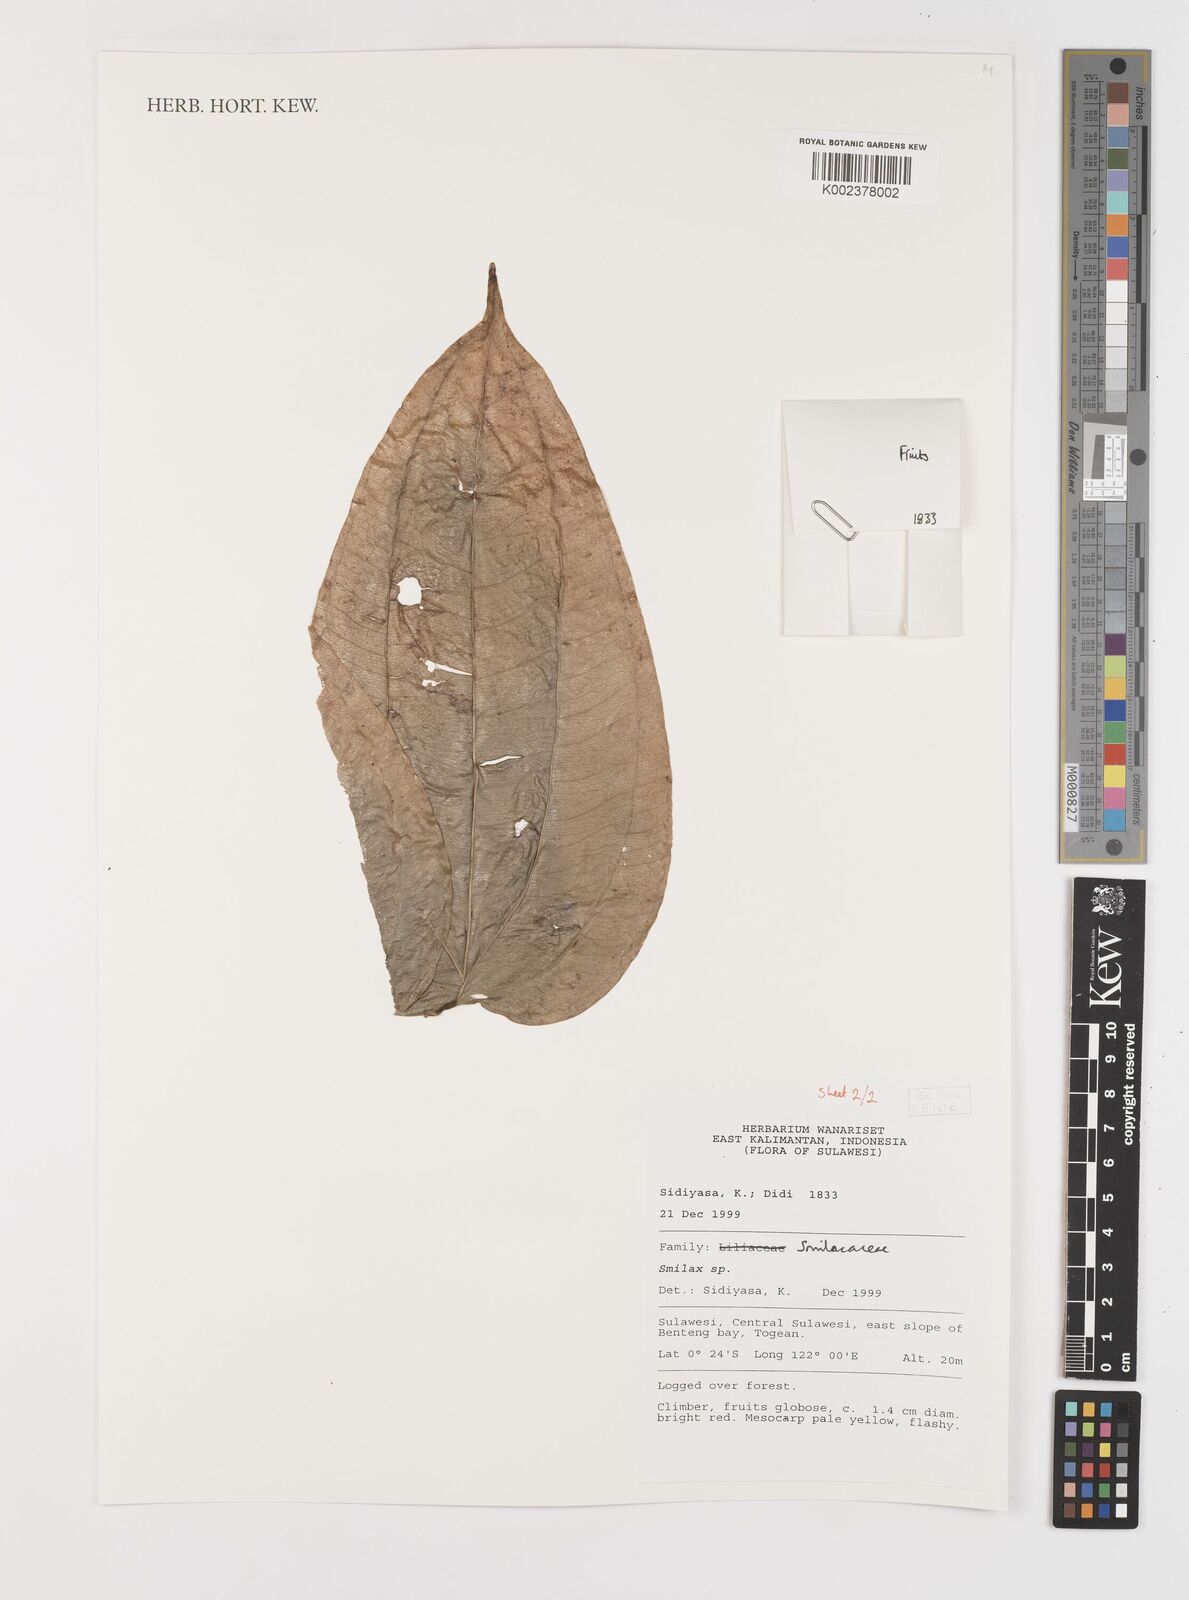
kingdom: Plantae
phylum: Tracheophyta
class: Liliopsida
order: Liliales
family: Smilacaceae
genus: Smilax
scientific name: Smilax
